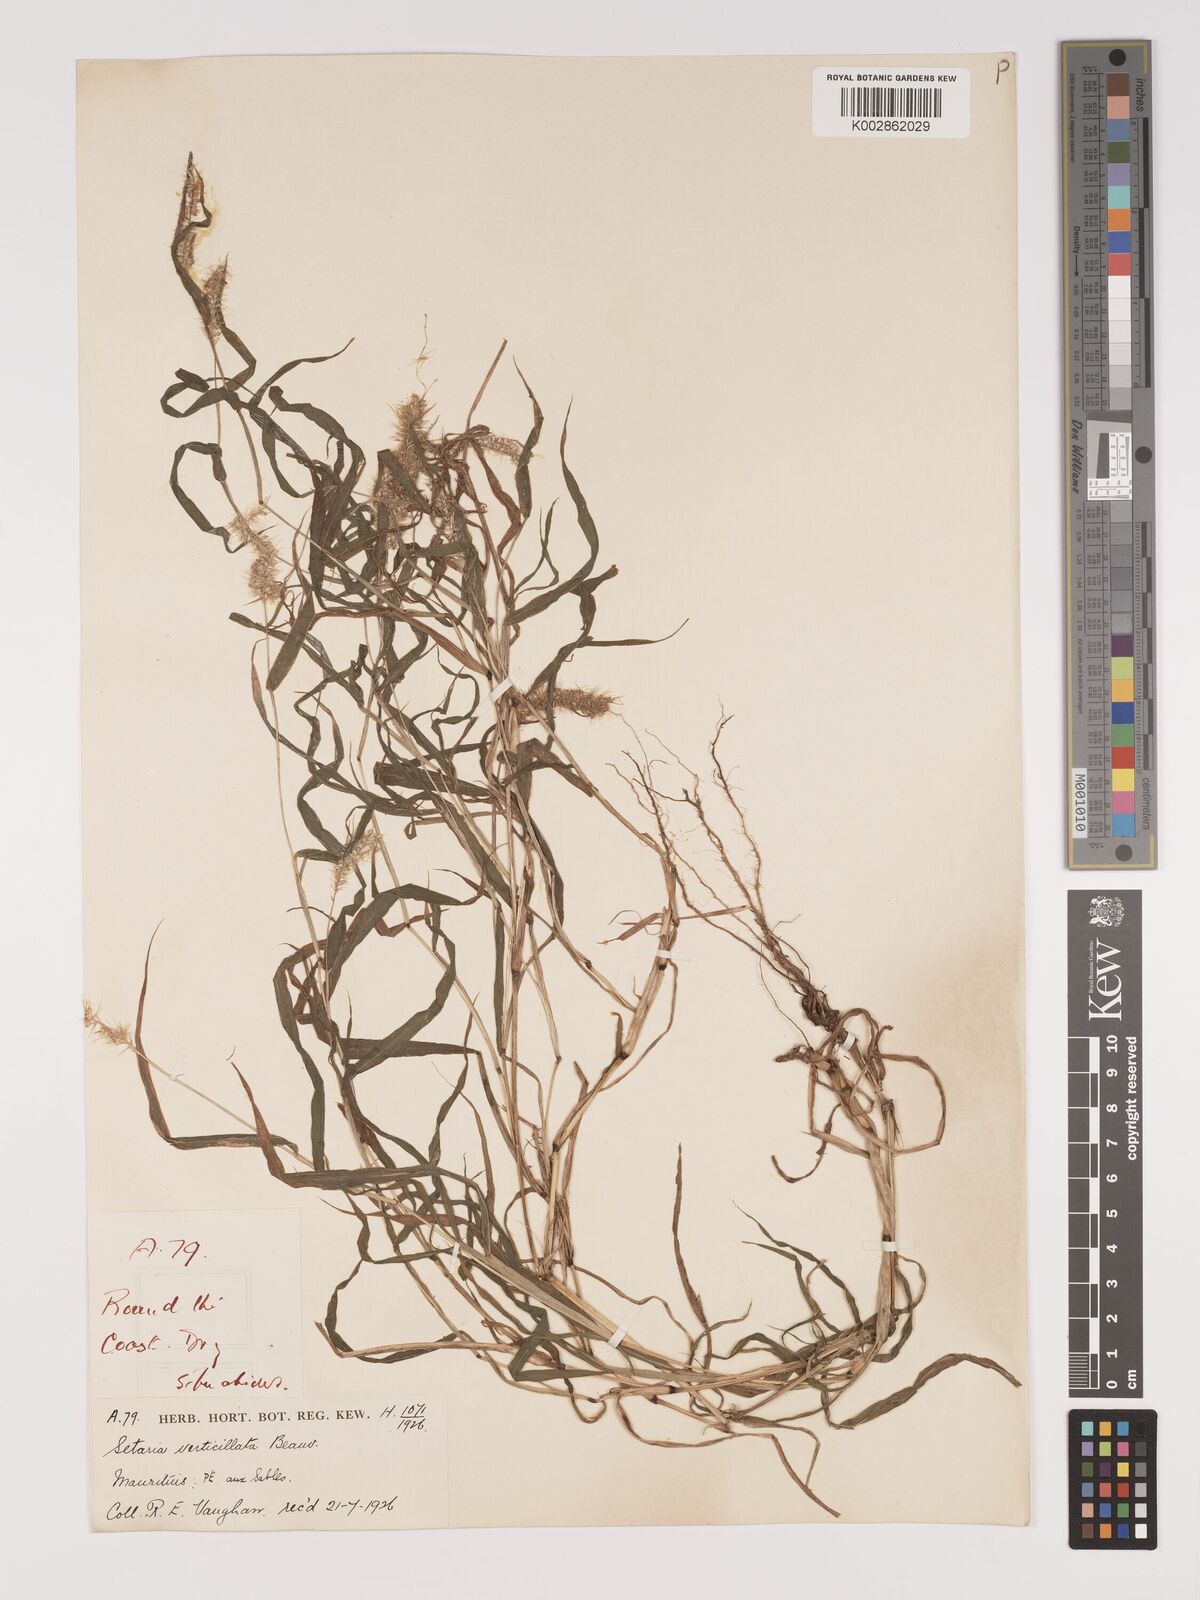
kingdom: Plantae
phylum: Tracheophyta
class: Liliopsida
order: Poales
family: Poaceae
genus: Setaria
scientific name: Setaria verticillata
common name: Hooked bristlegrass
